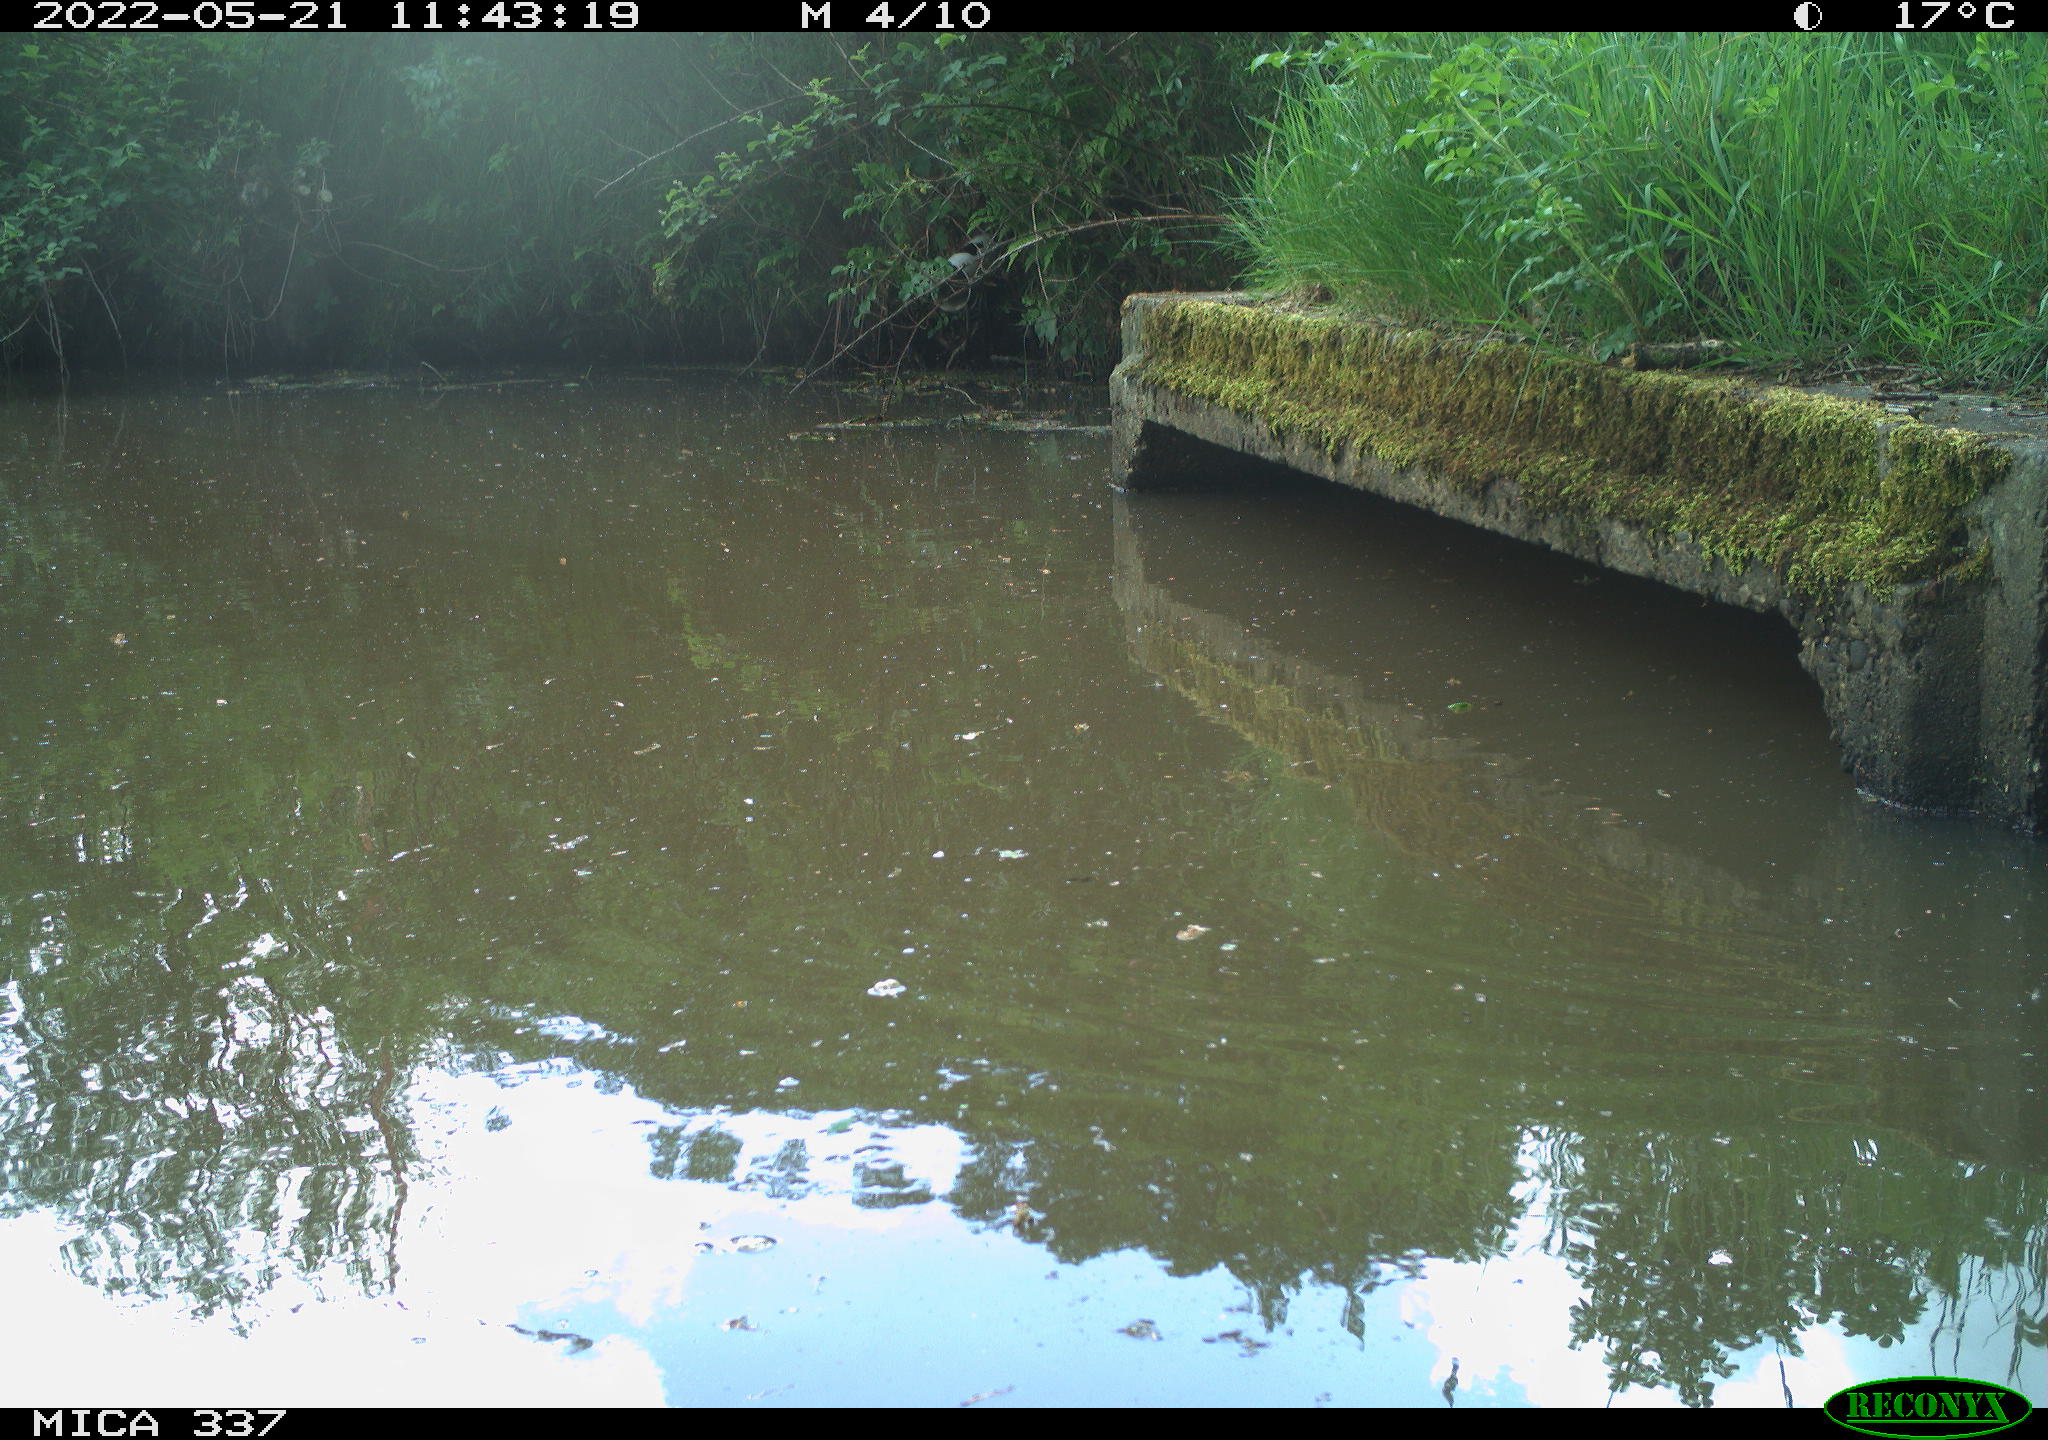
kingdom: Animalia
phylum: Chordata
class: Aves
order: Gruiformes
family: Rallidae
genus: Gallinula
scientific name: Gallinula chloropus
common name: Common moorhen
